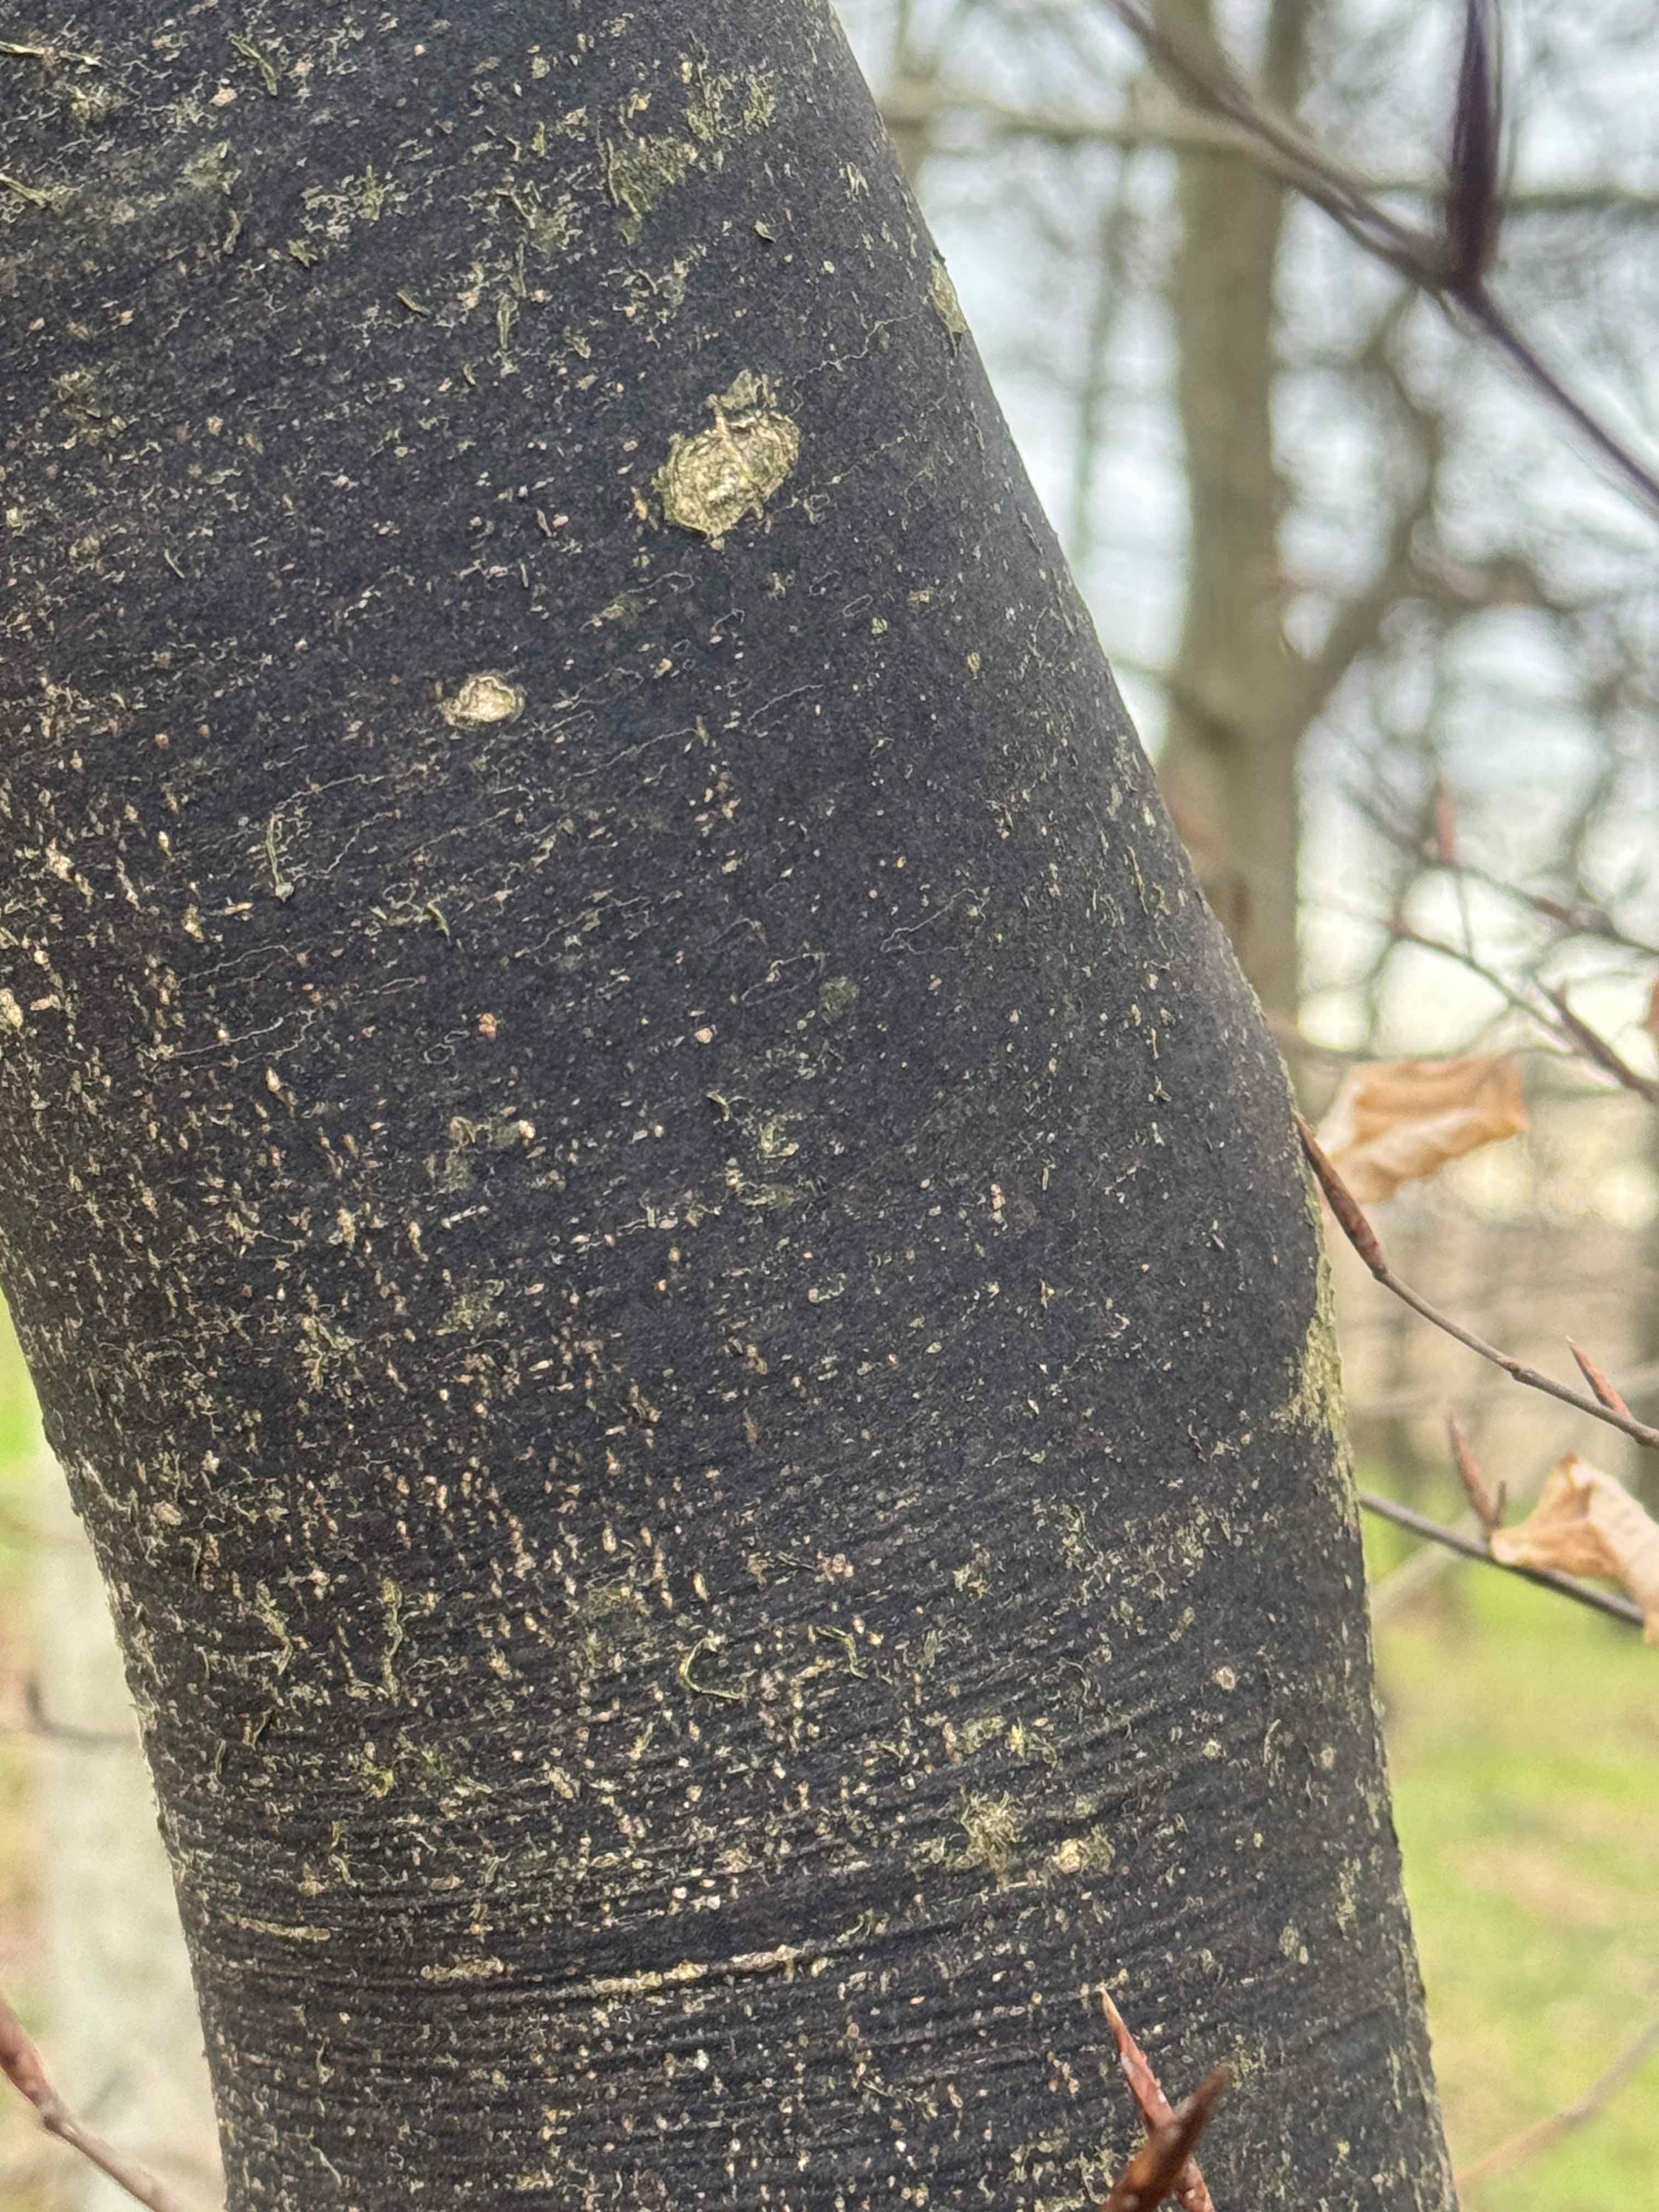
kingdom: Fungi
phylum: Ascomycota
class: Leotiomycetes
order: Rhytismatales
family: Ascodichaenaceae
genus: Ascodichaena
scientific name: Ascodichaena rugosa
